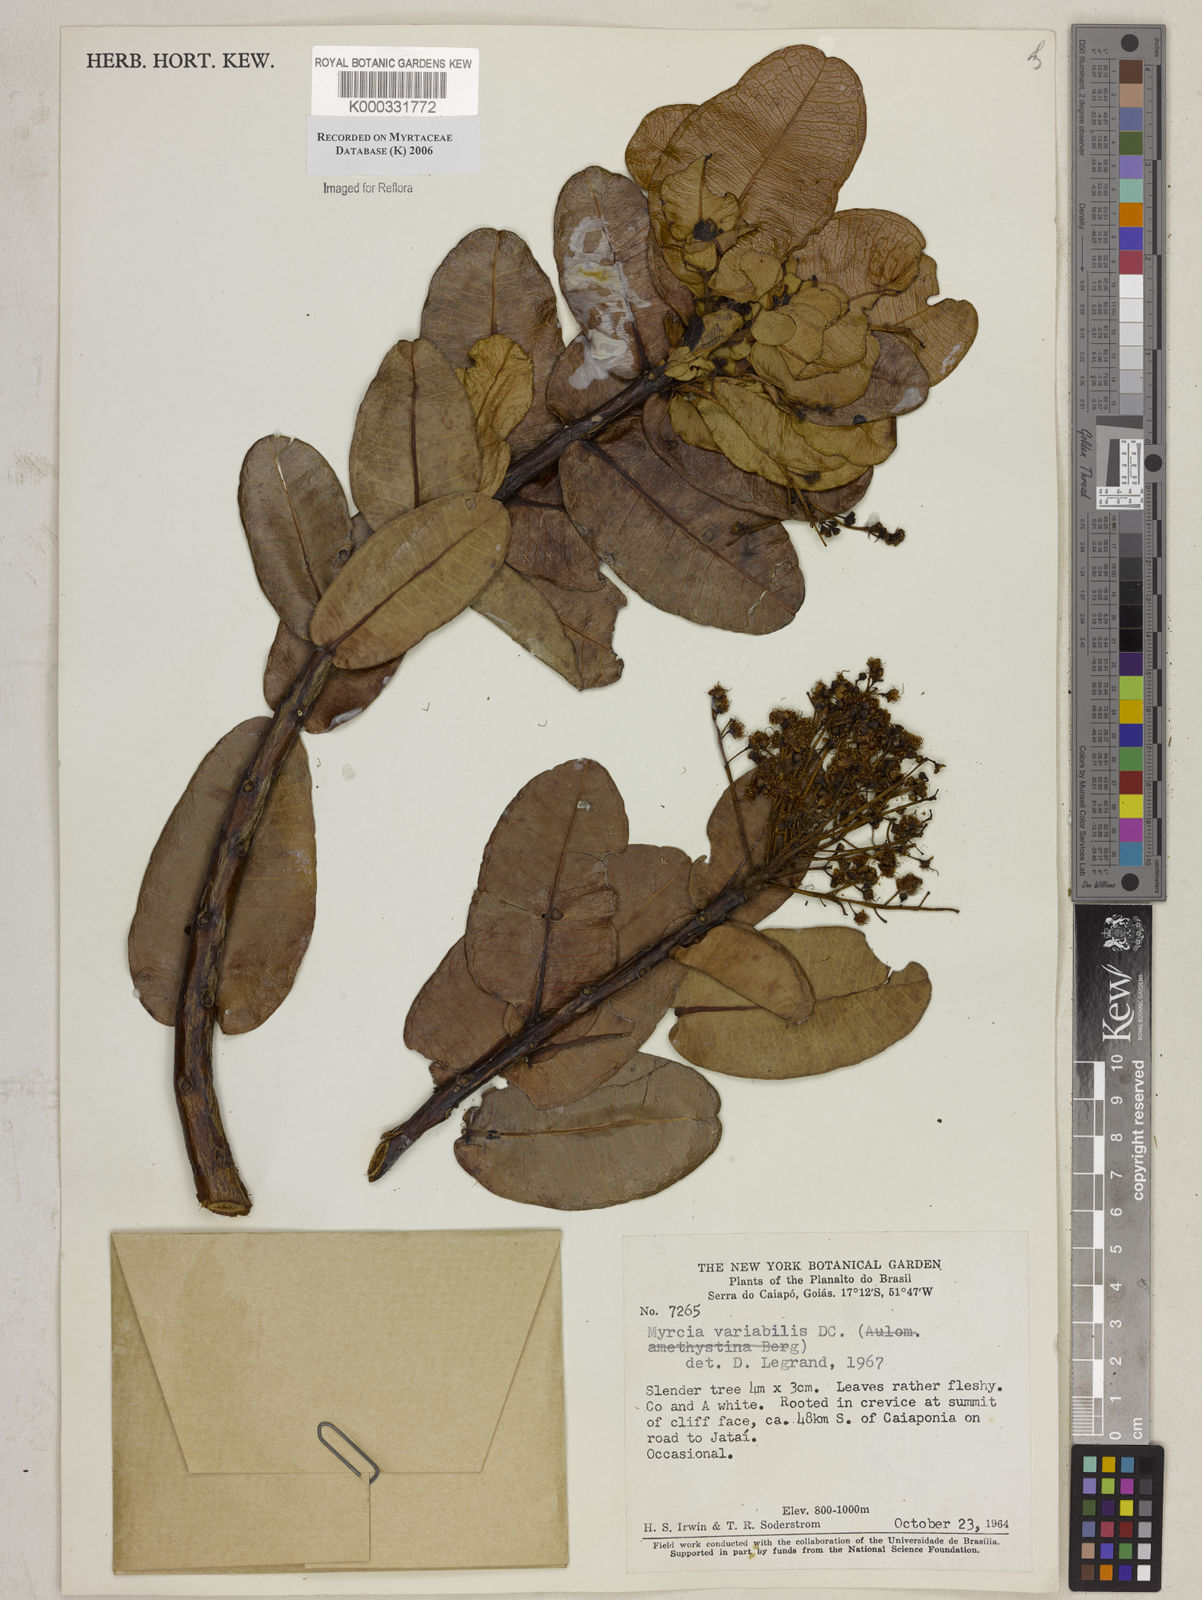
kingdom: Plantae
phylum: Tracheophyta
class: Magnoliopsida
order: Myrtales
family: Myrtaceae
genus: Myrcia
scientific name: Myrcia variabilis
